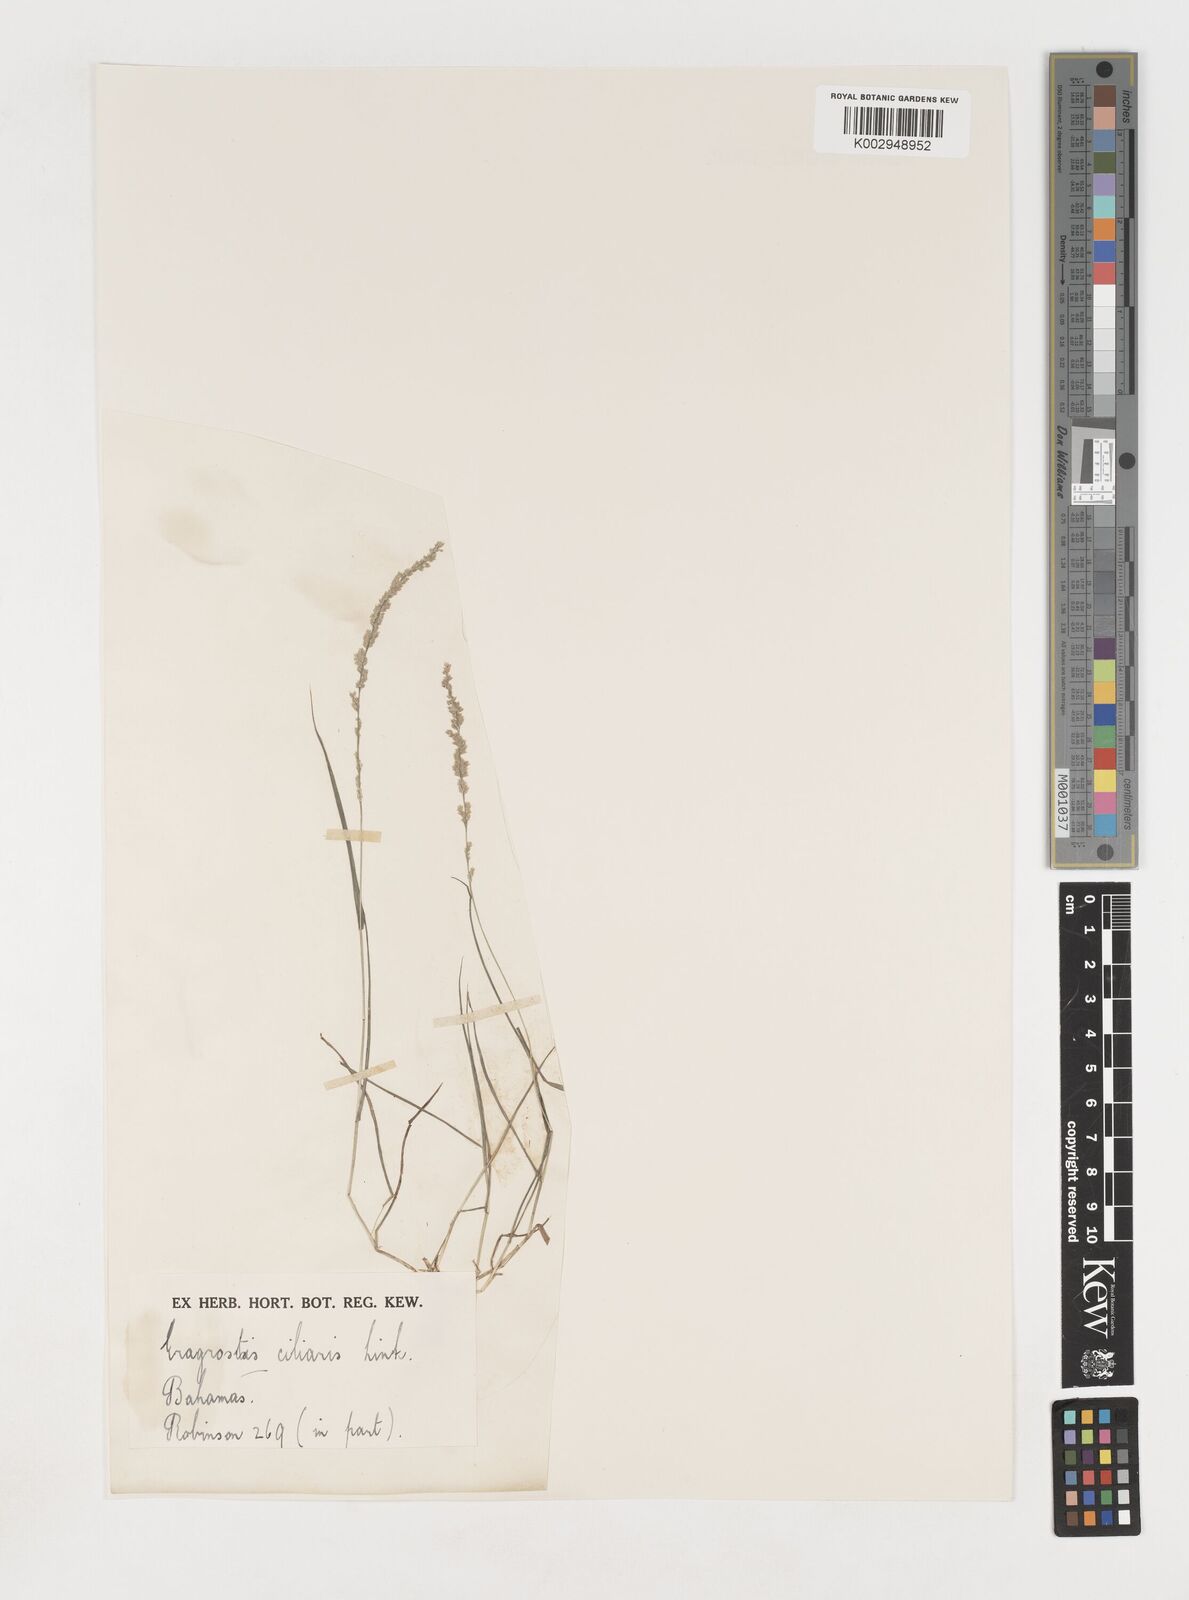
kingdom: Plantae
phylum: Tracheophyta
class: Liliopsida
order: Poales
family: Poaceae
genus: Eragrostis
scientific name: Eragrostis ciliaris
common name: Gophertail lovegrass
